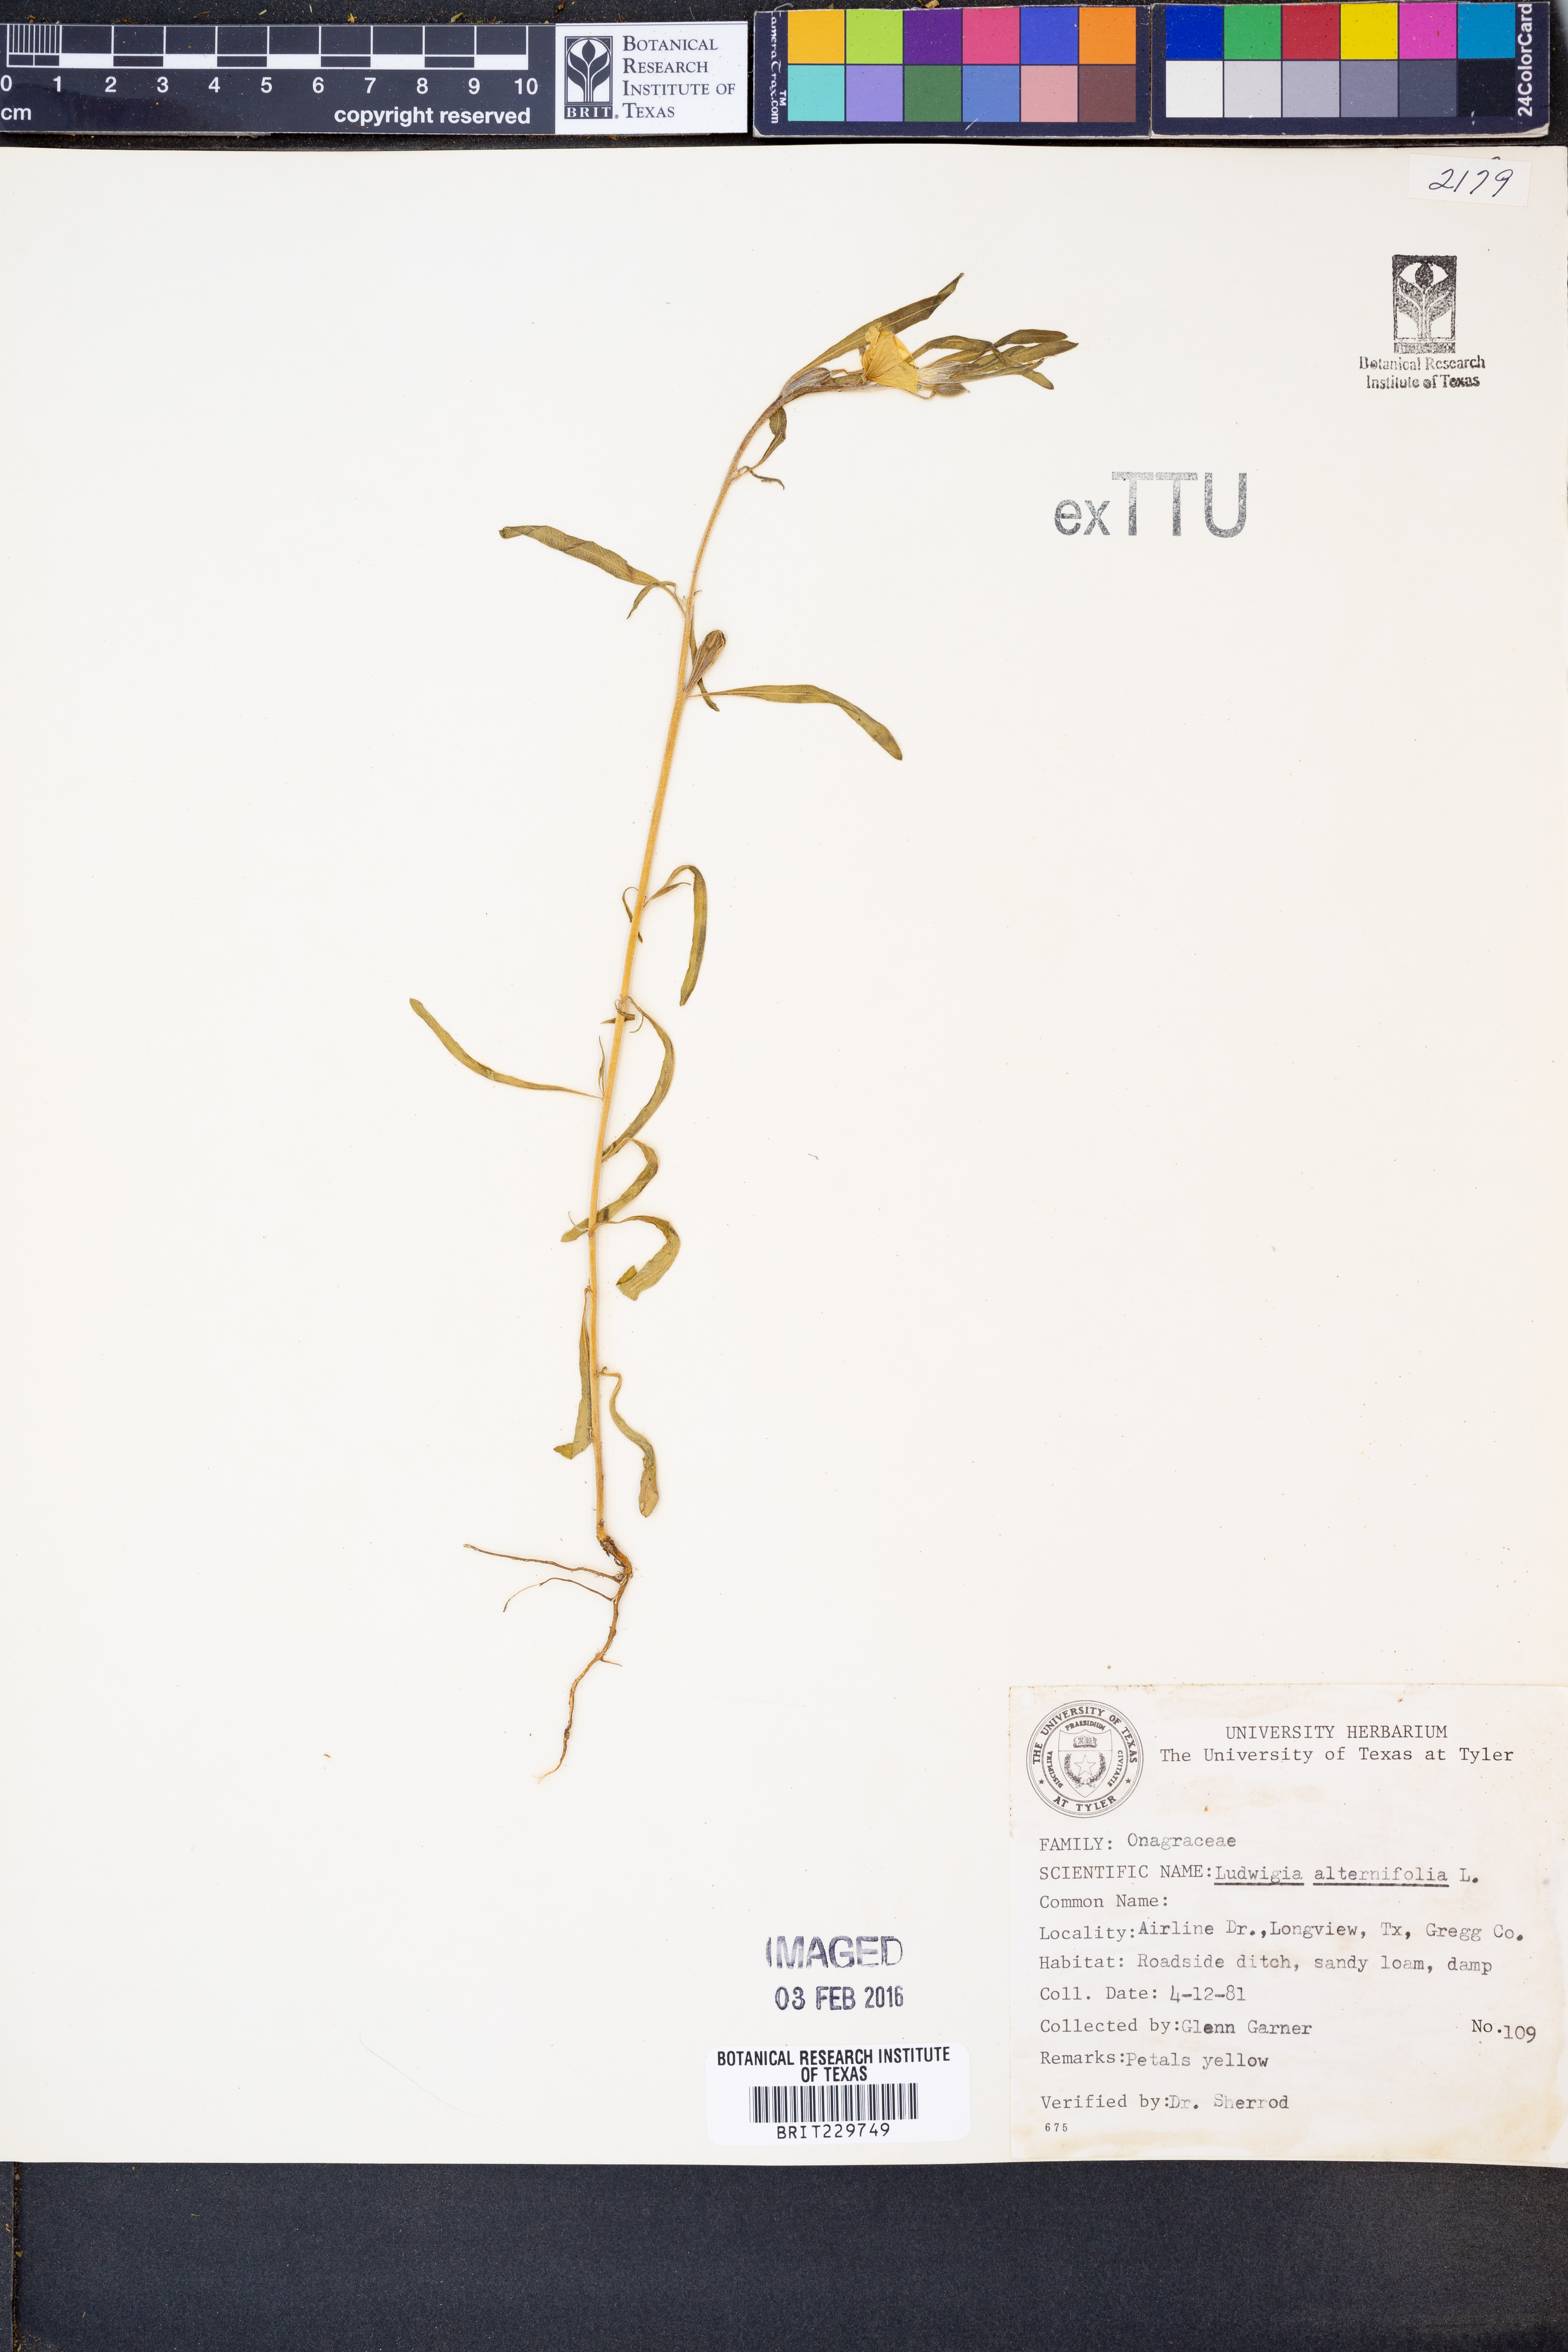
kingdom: Plantae
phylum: Tracheophyta
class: Magnoliopsida
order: Myrtales
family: Onagraceae
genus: Ludwigia
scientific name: Ludwigia alternifolia
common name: Rattlebox
